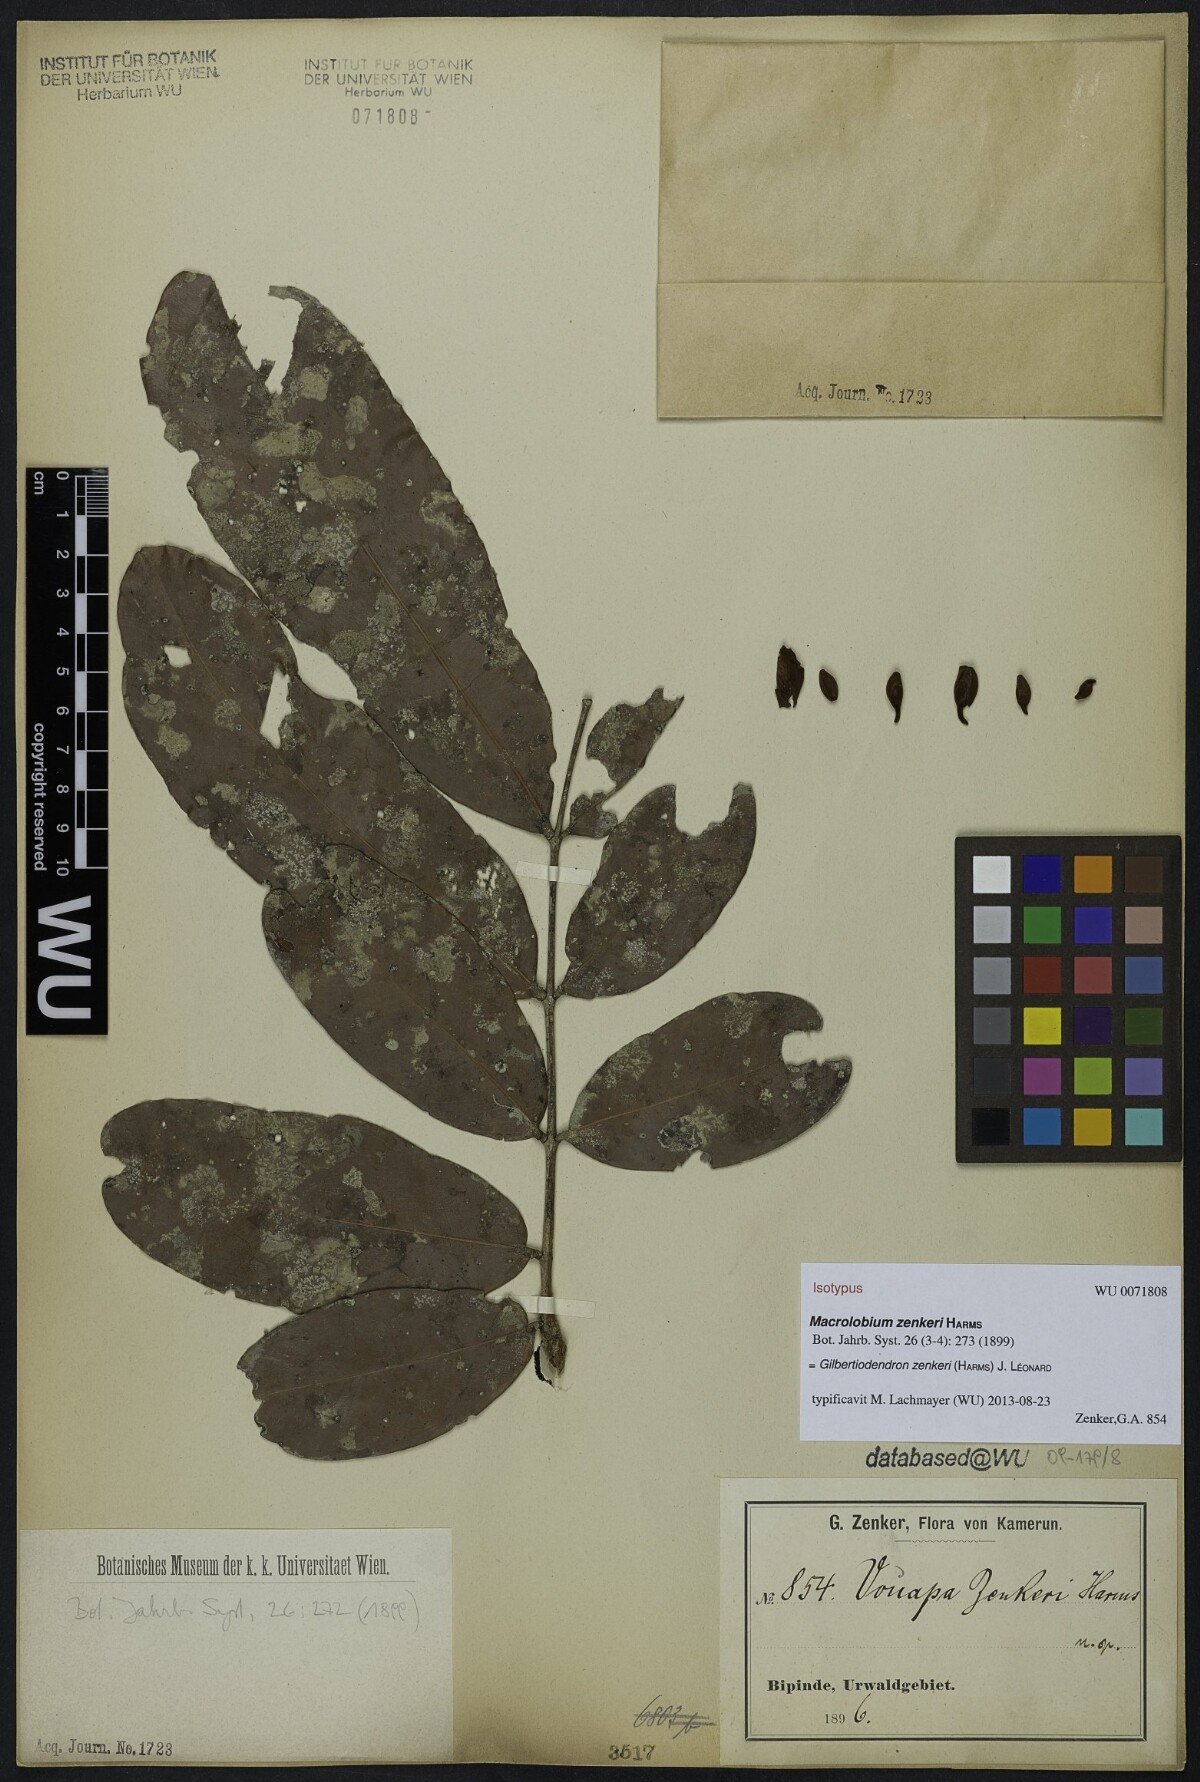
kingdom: Plantae
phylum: Tracheophyta
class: Magnoliopsida
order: Fabales
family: Fabaceae
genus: Gilbertiodendron
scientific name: Gilbertiodendron zenkeri
